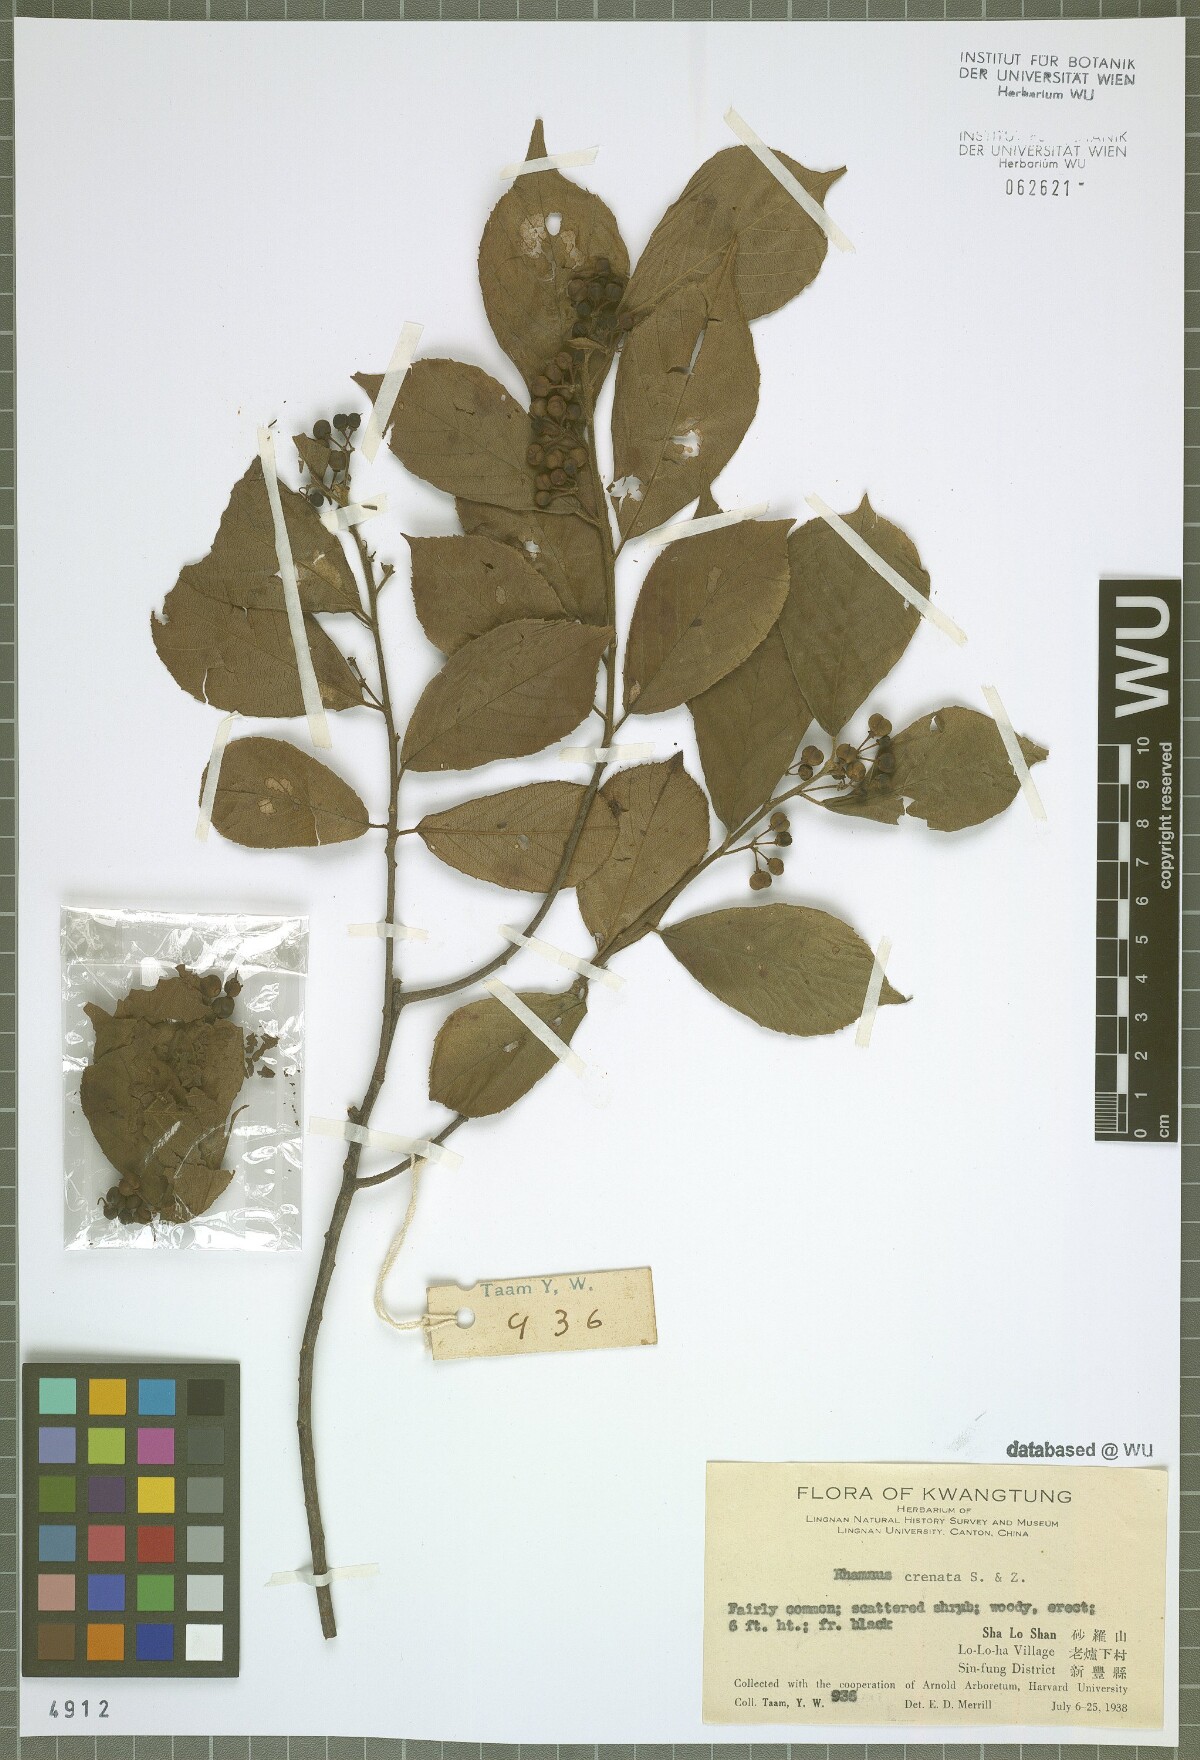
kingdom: Plantae
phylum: Tracheophyta
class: Magnoliopsida
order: Rosales
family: Rhamnaceae
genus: Frangula
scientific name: Frangula crenata
